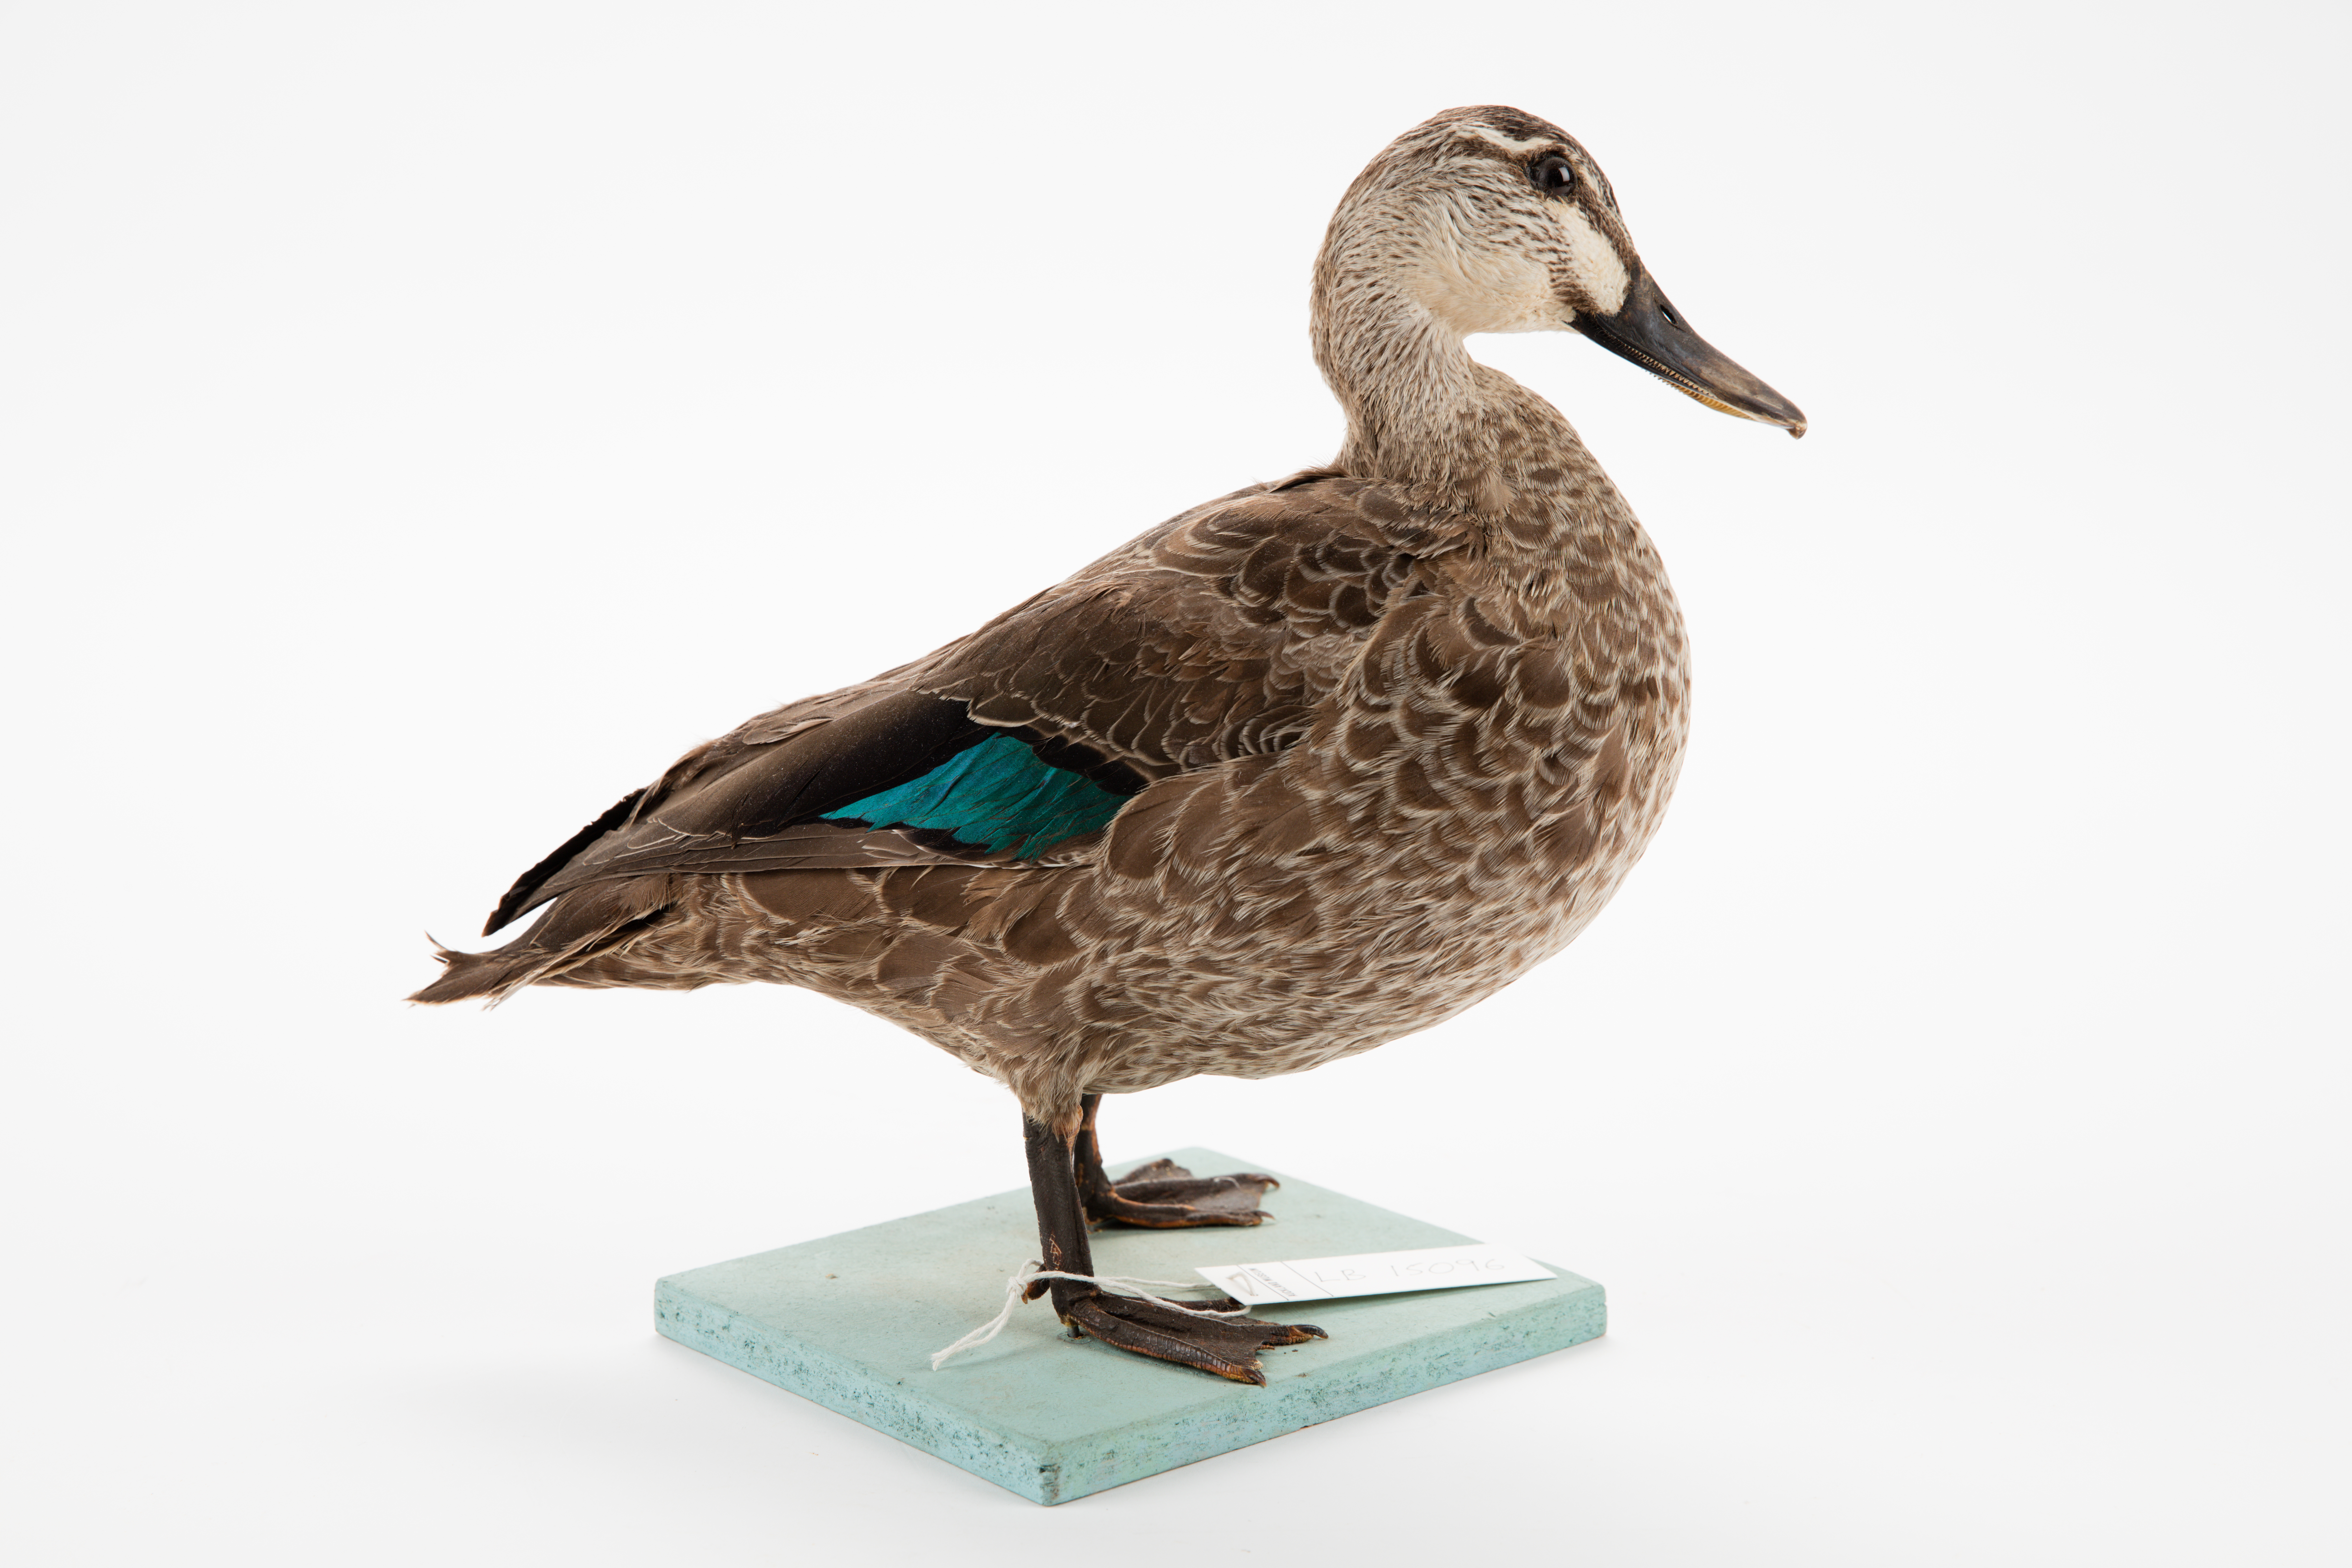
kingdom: Animalia
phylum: Chordata
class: Aves
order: Anseriformes
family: Anatidae
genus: Anas
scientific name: Anas superciliosa
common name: Pacific black duck
